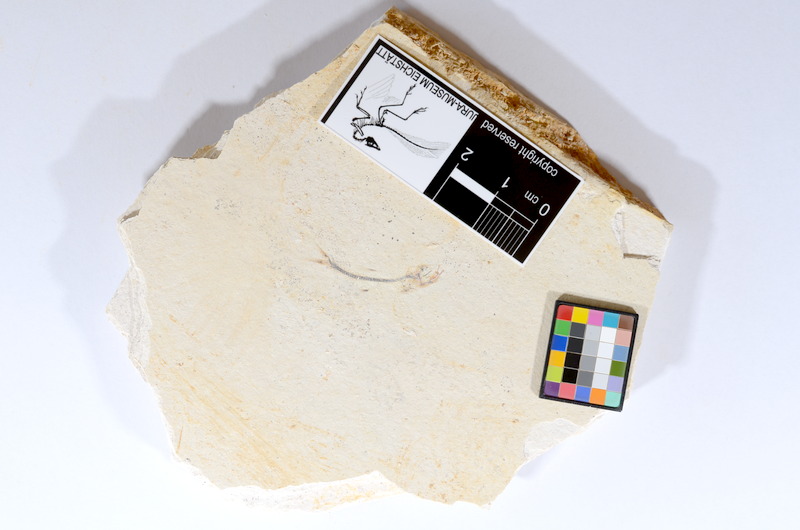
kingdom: Animalia
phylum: Chordata
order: Salmoniformes
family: Orthogonikleithridae
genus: Orthogonikleithrus
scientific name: Orthogonikleithrus hoelli
